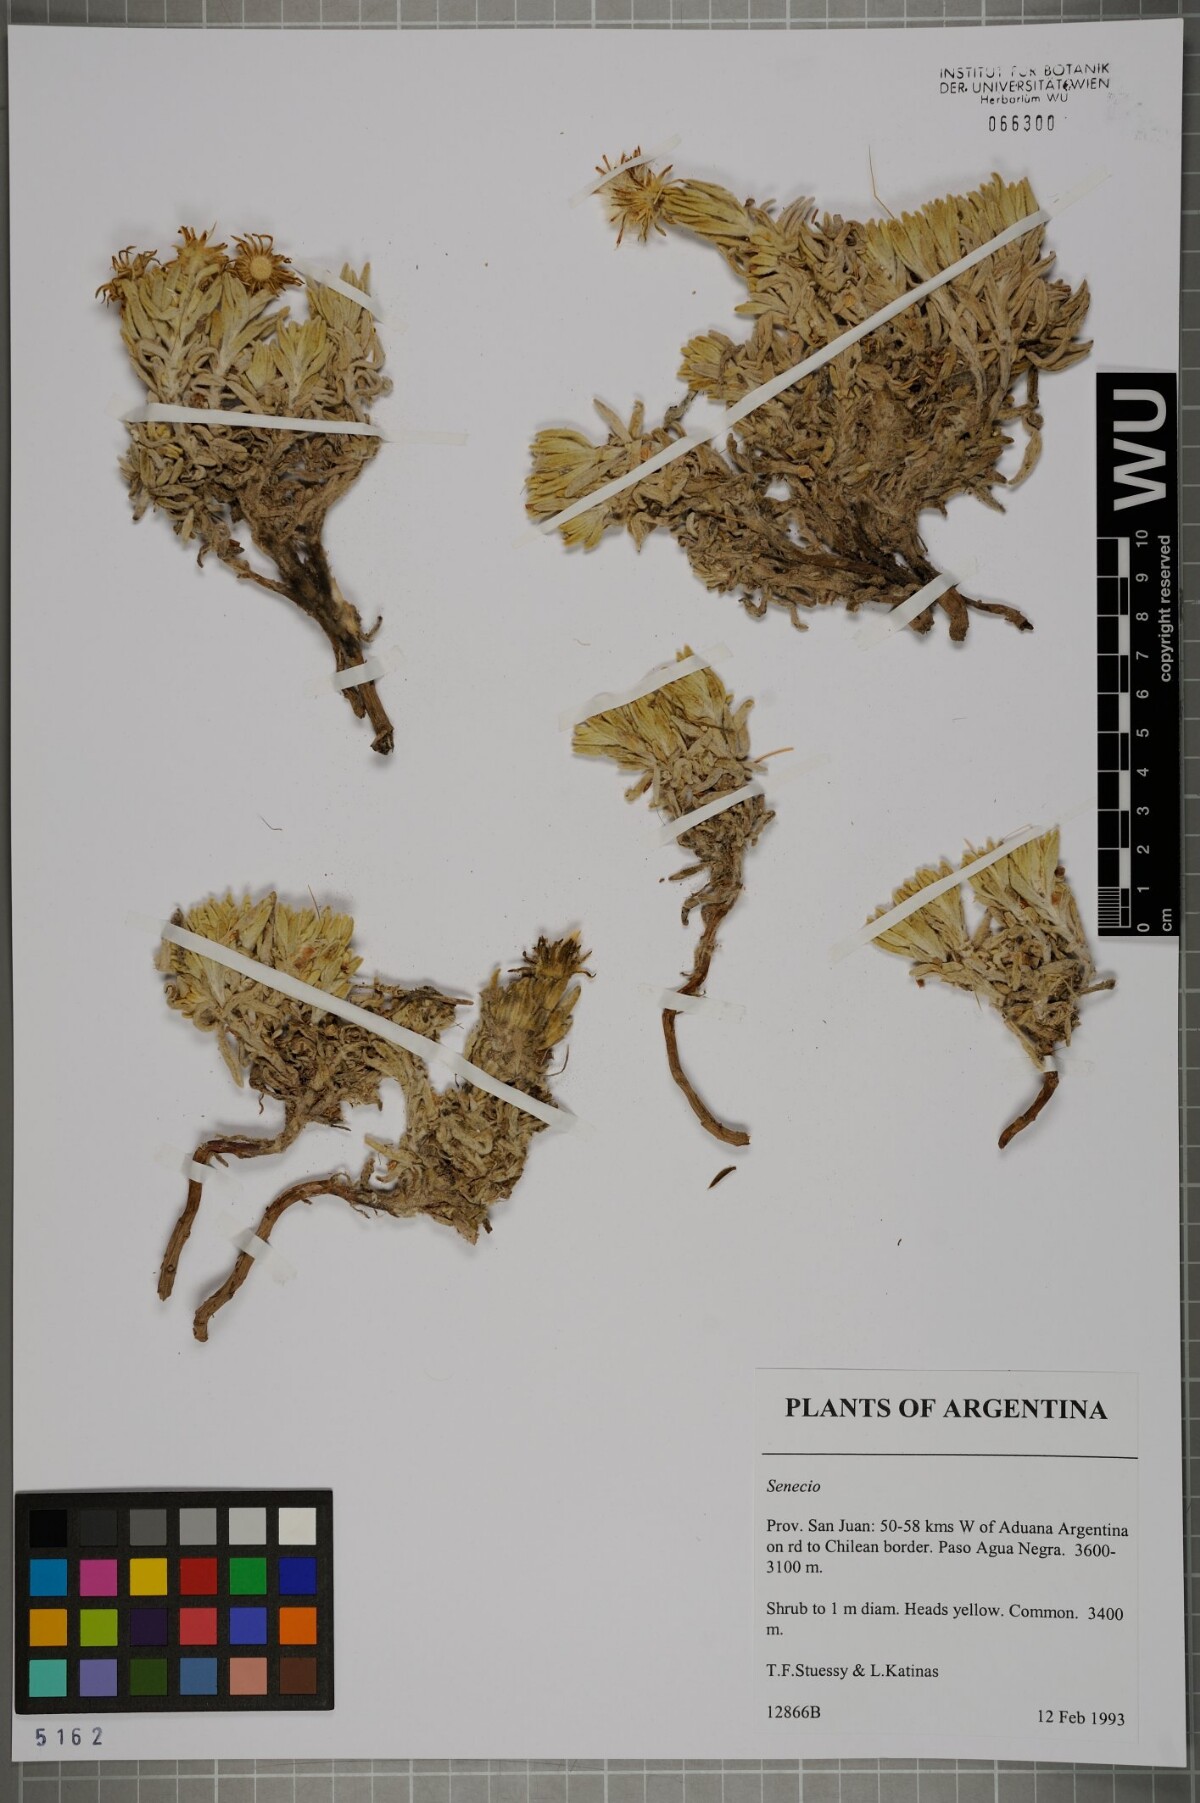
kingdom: Plantae
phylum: Tracheophyta
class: Magnoliopsida
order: Asterales
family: Asteraceae
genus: Senecio
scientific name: Senecio
